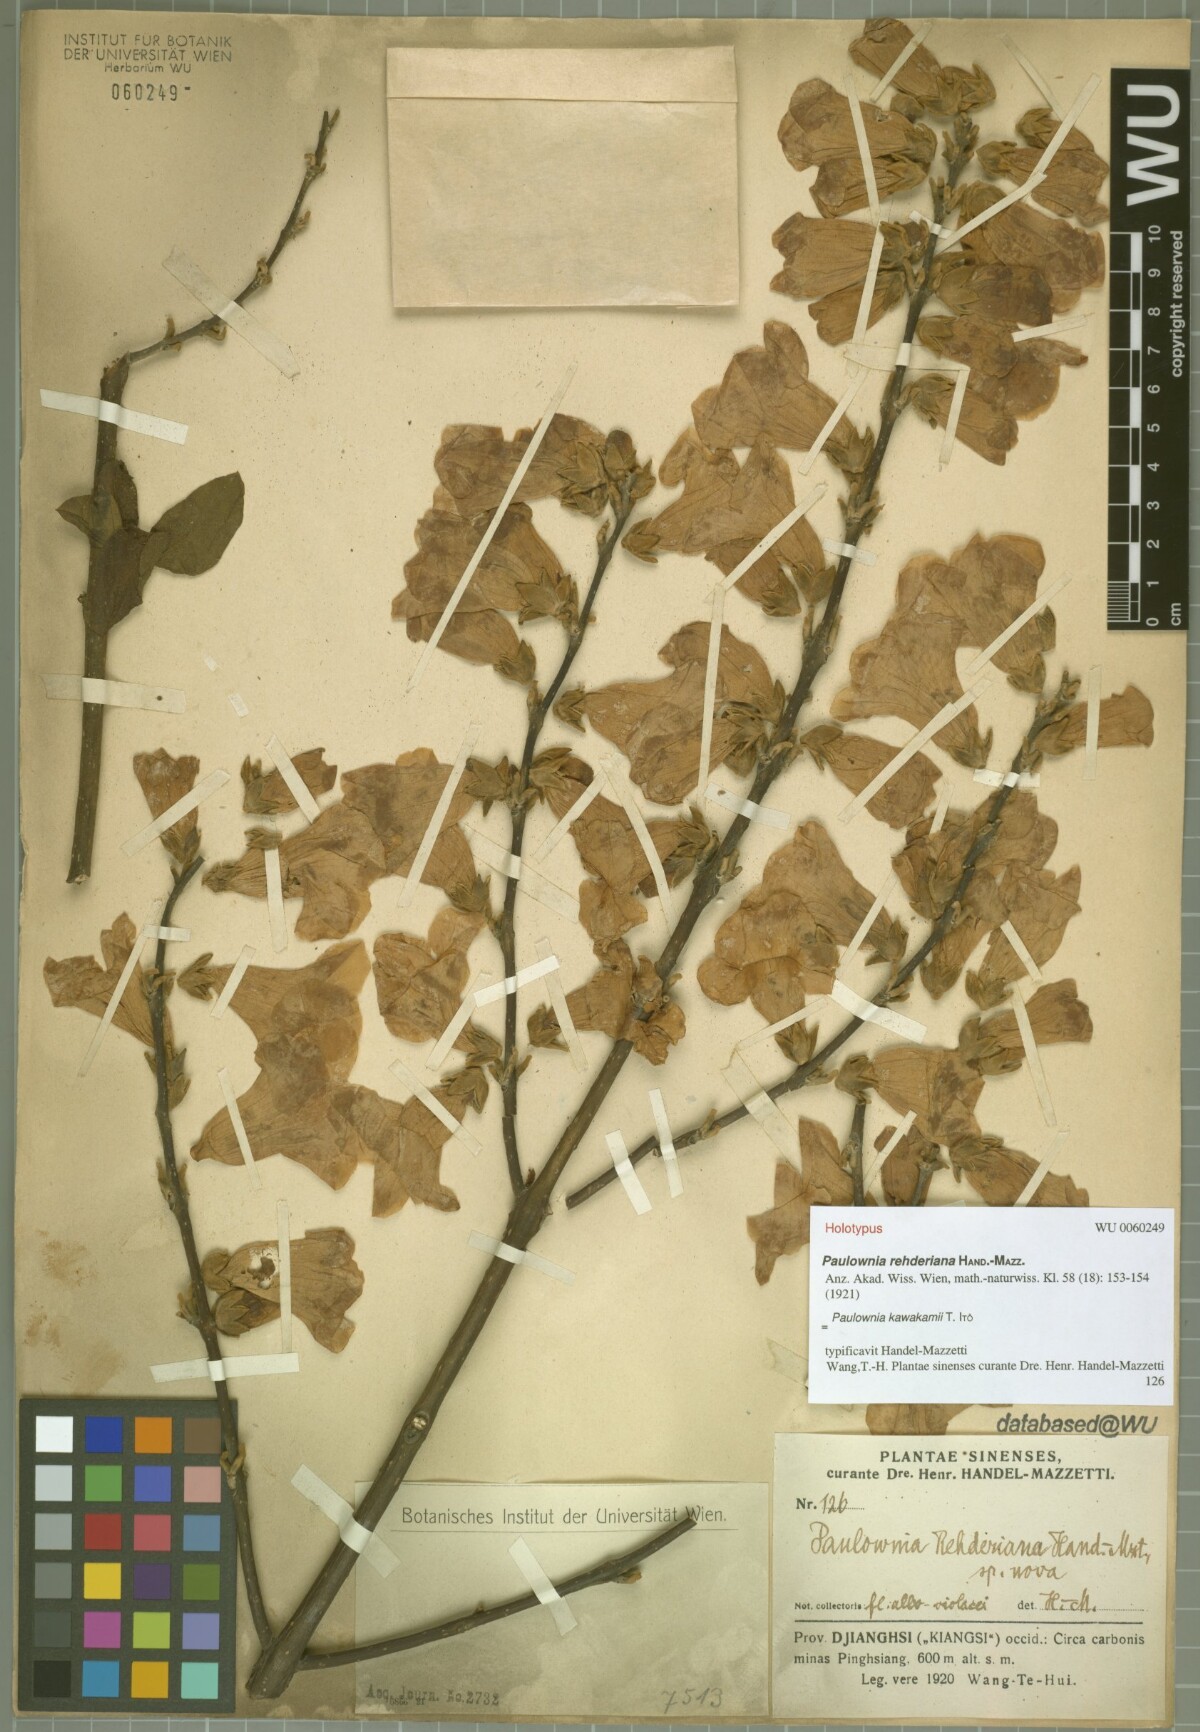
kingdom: Plantae
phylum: Tracheophyta
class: Magnoliopsida
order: Lamiales
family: Paulowniaceae
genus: Paulownia
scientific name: Paulownia kawakamii
